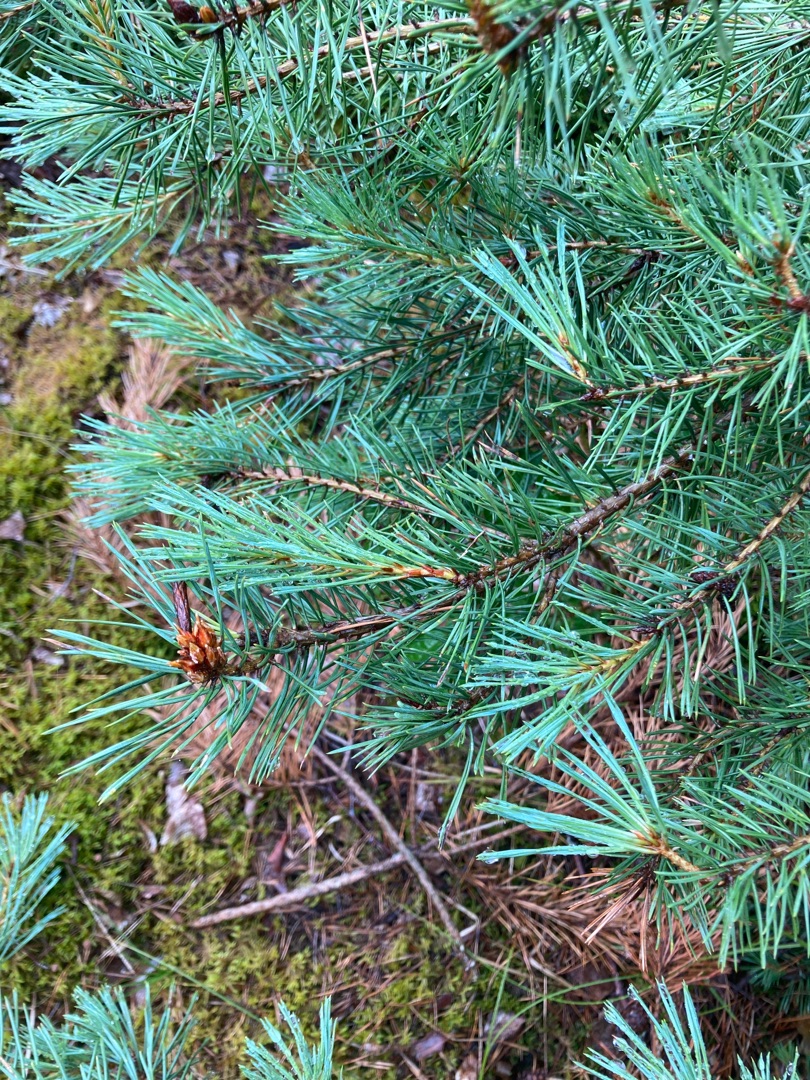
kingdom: Plantae
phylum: Tracheophyta
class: Pinopsida
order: Pinales
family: Pinaceae
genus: Pinus
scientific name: Pinus sylvestris
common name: Skov-fyr
